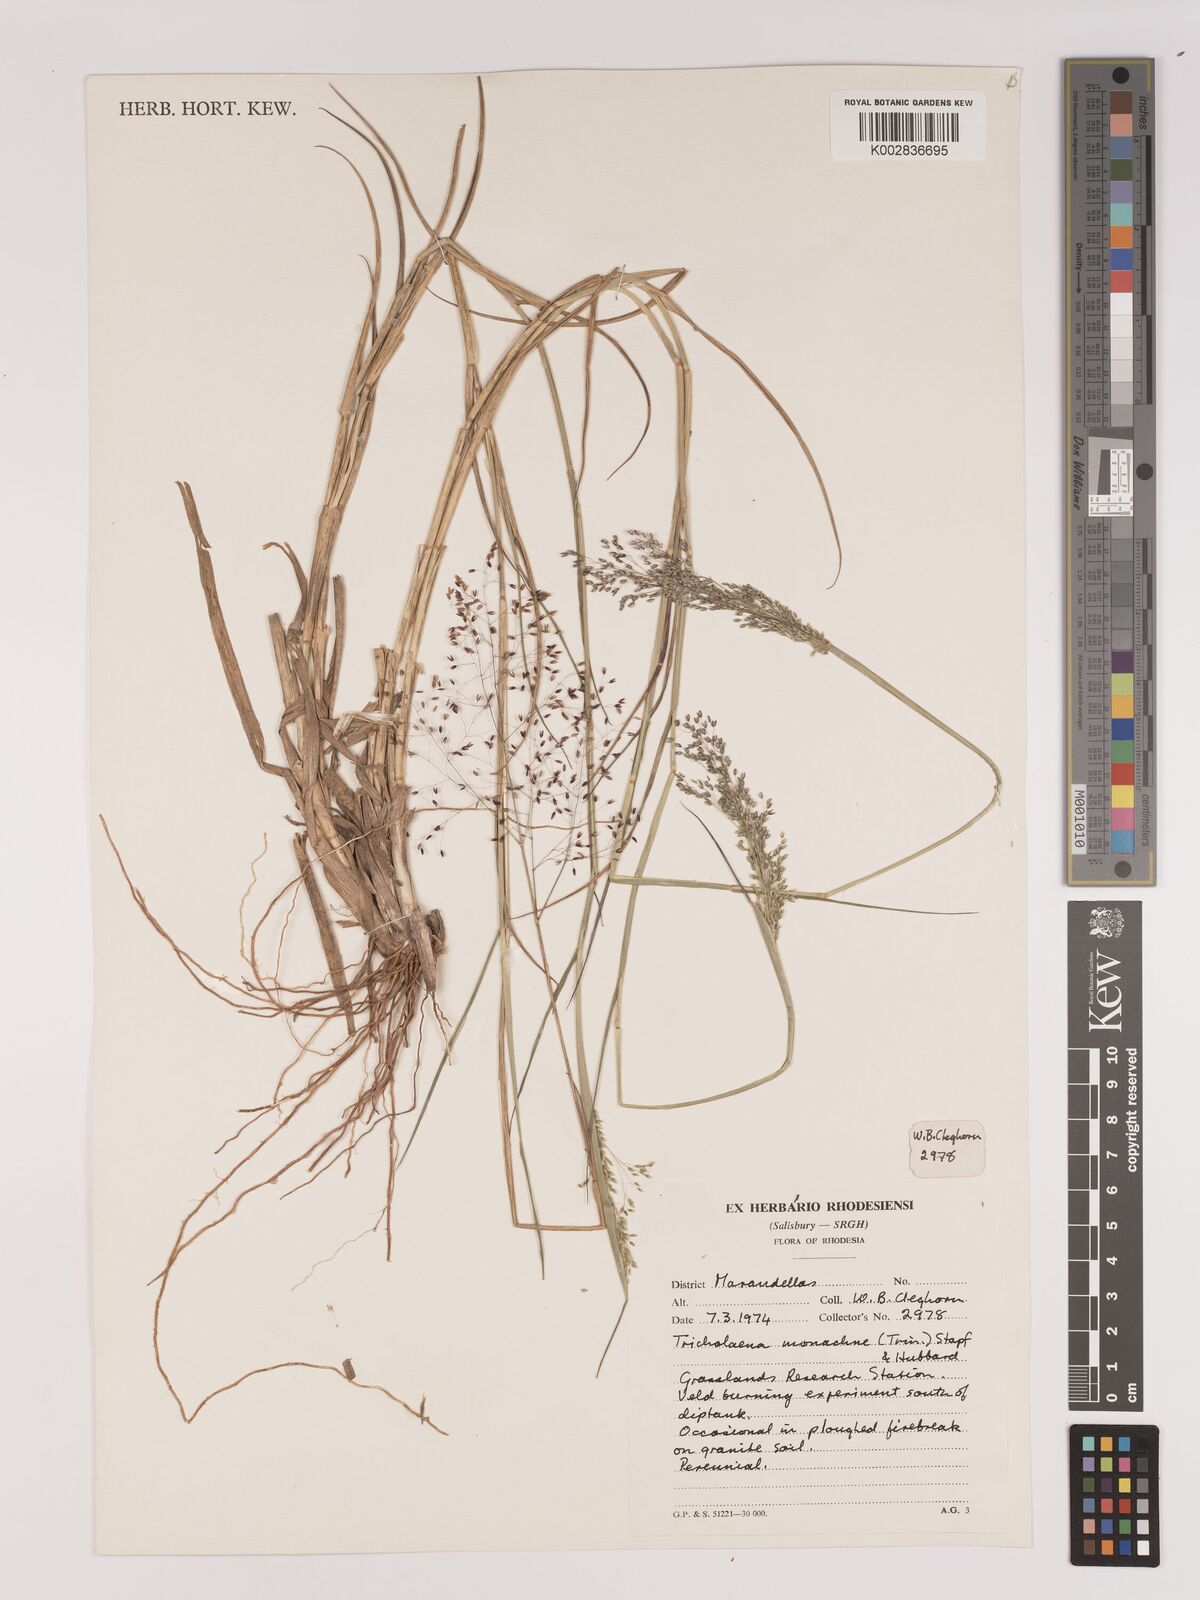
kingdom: Plantae
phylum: Tracheophyta
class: Liliopsida
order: Poales
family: Poaceae
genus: Tricholaena
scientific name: Tricholaena monachne
